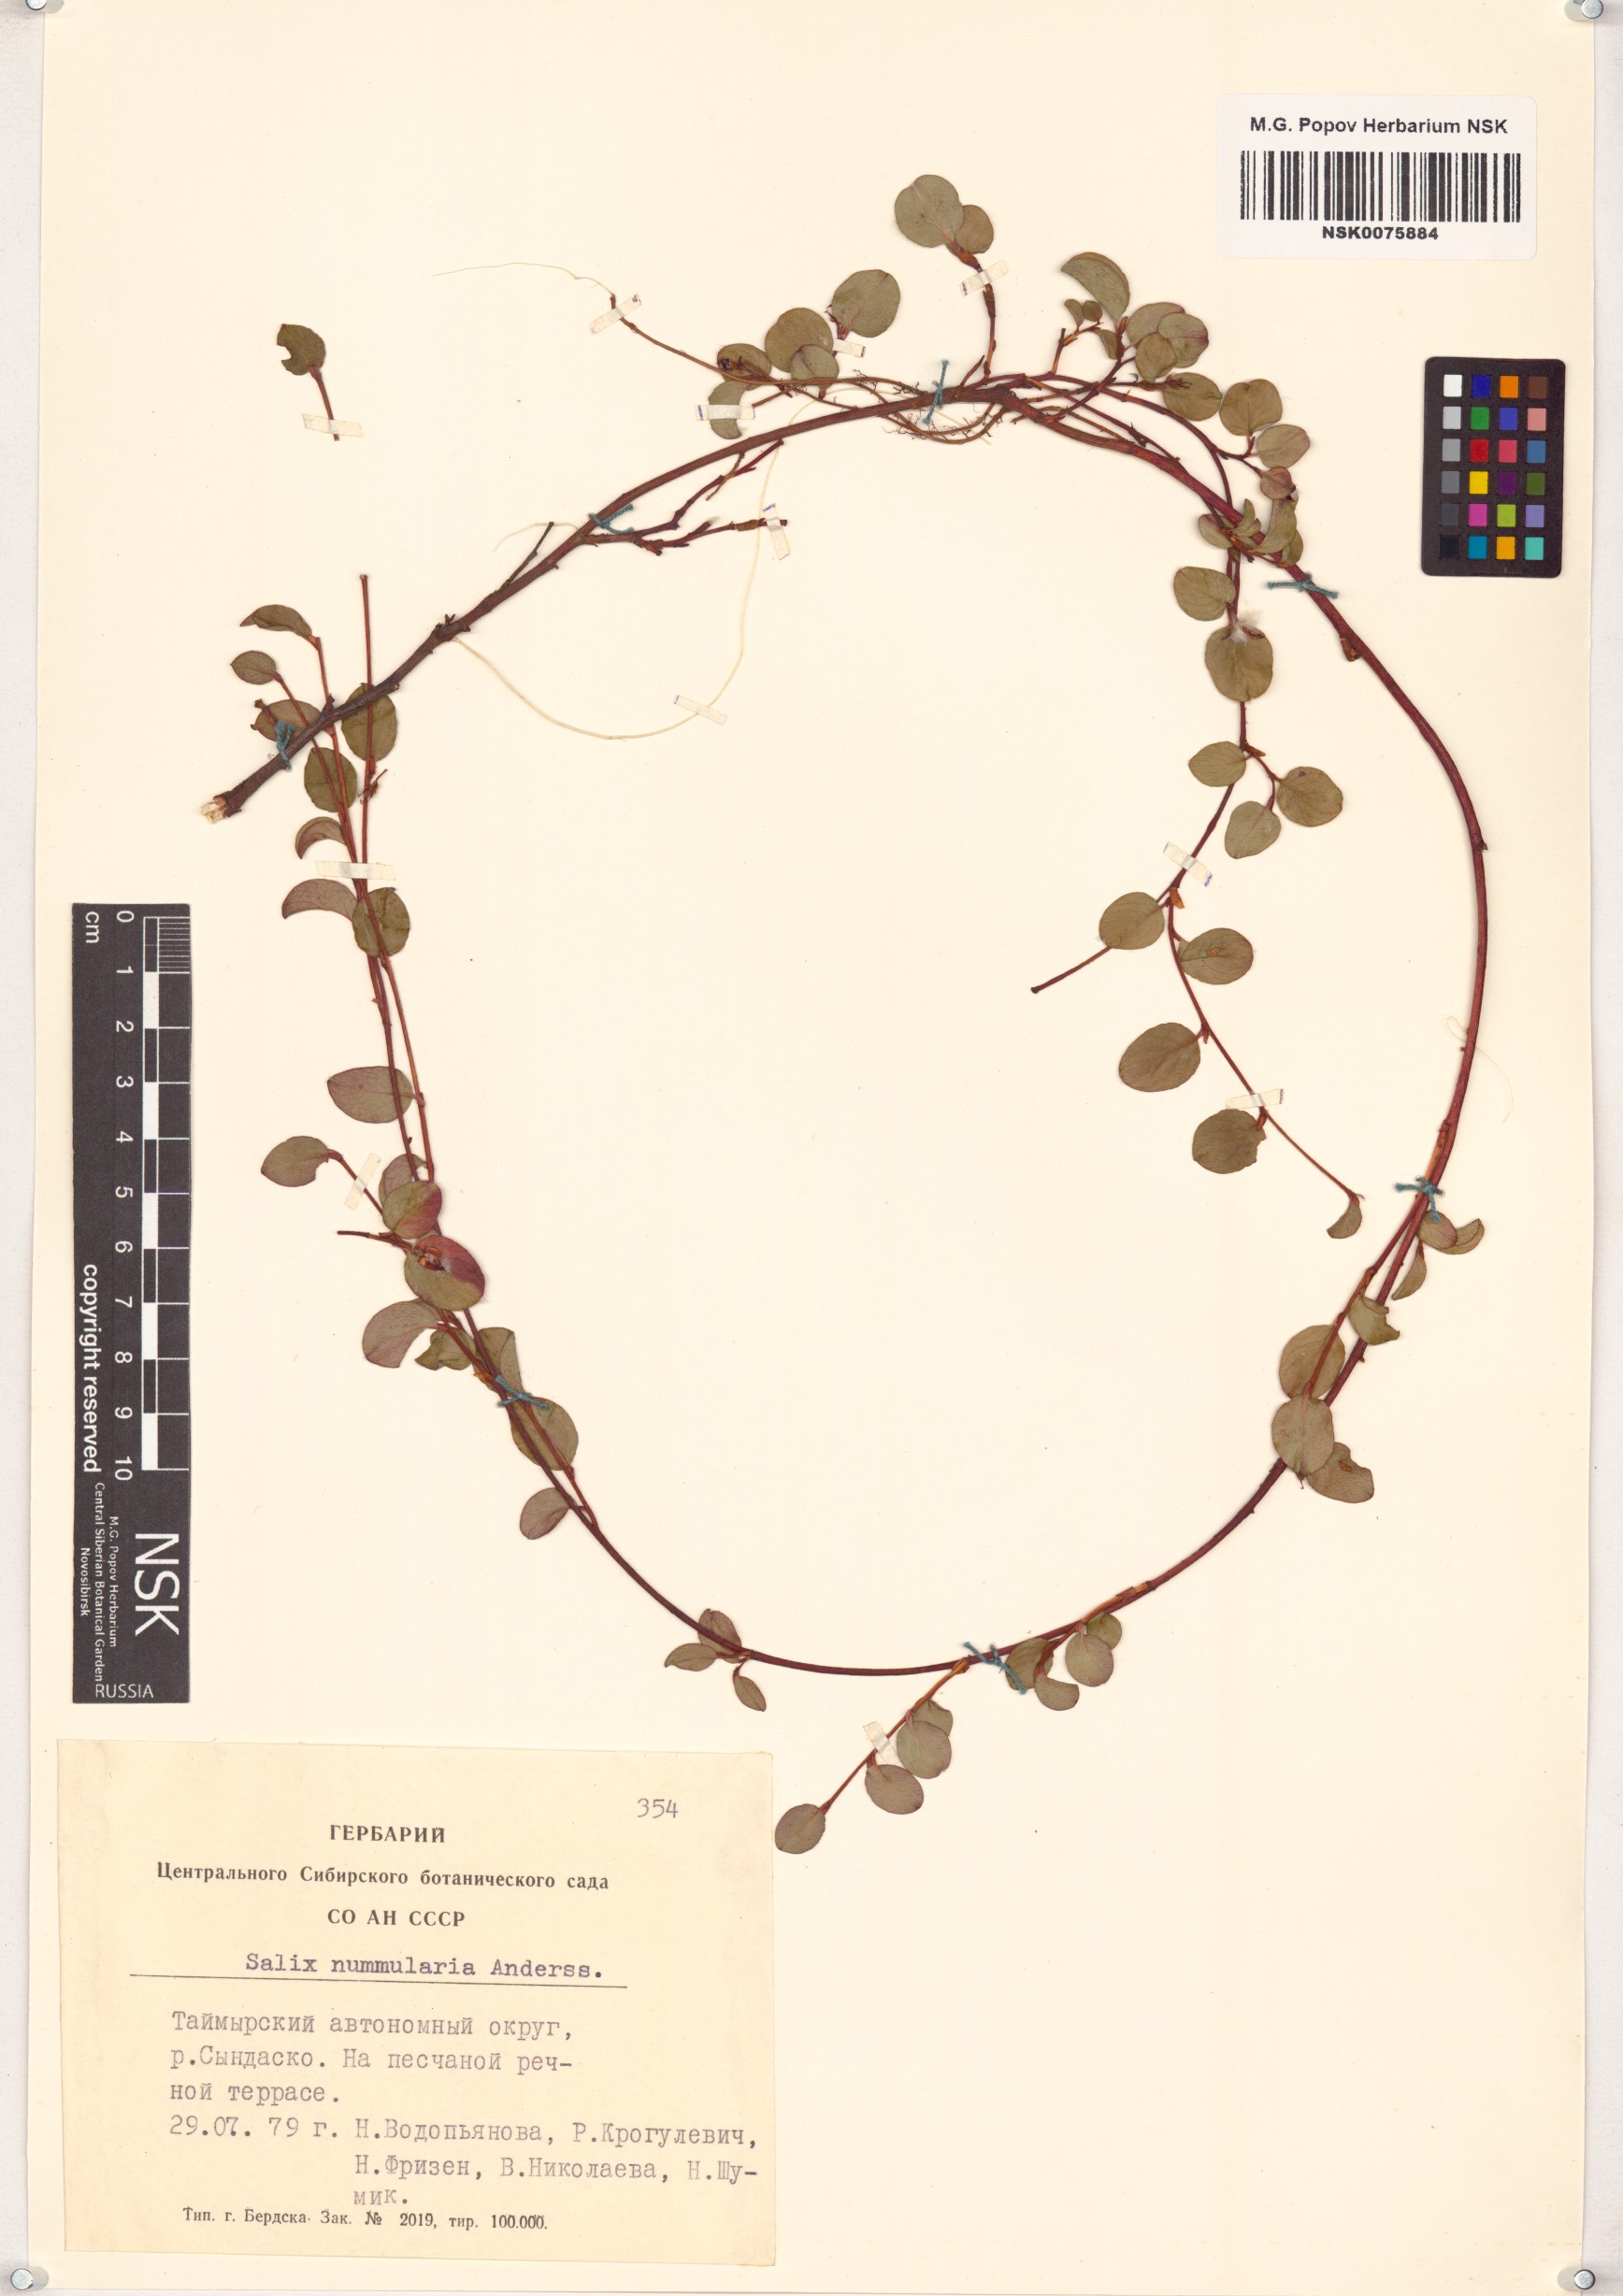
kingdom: Plantae
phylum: Tracheophyta
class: Magnoliopsida
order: Malpighiales
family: Salicaceae
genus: Salix
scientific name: Salix nummularia
